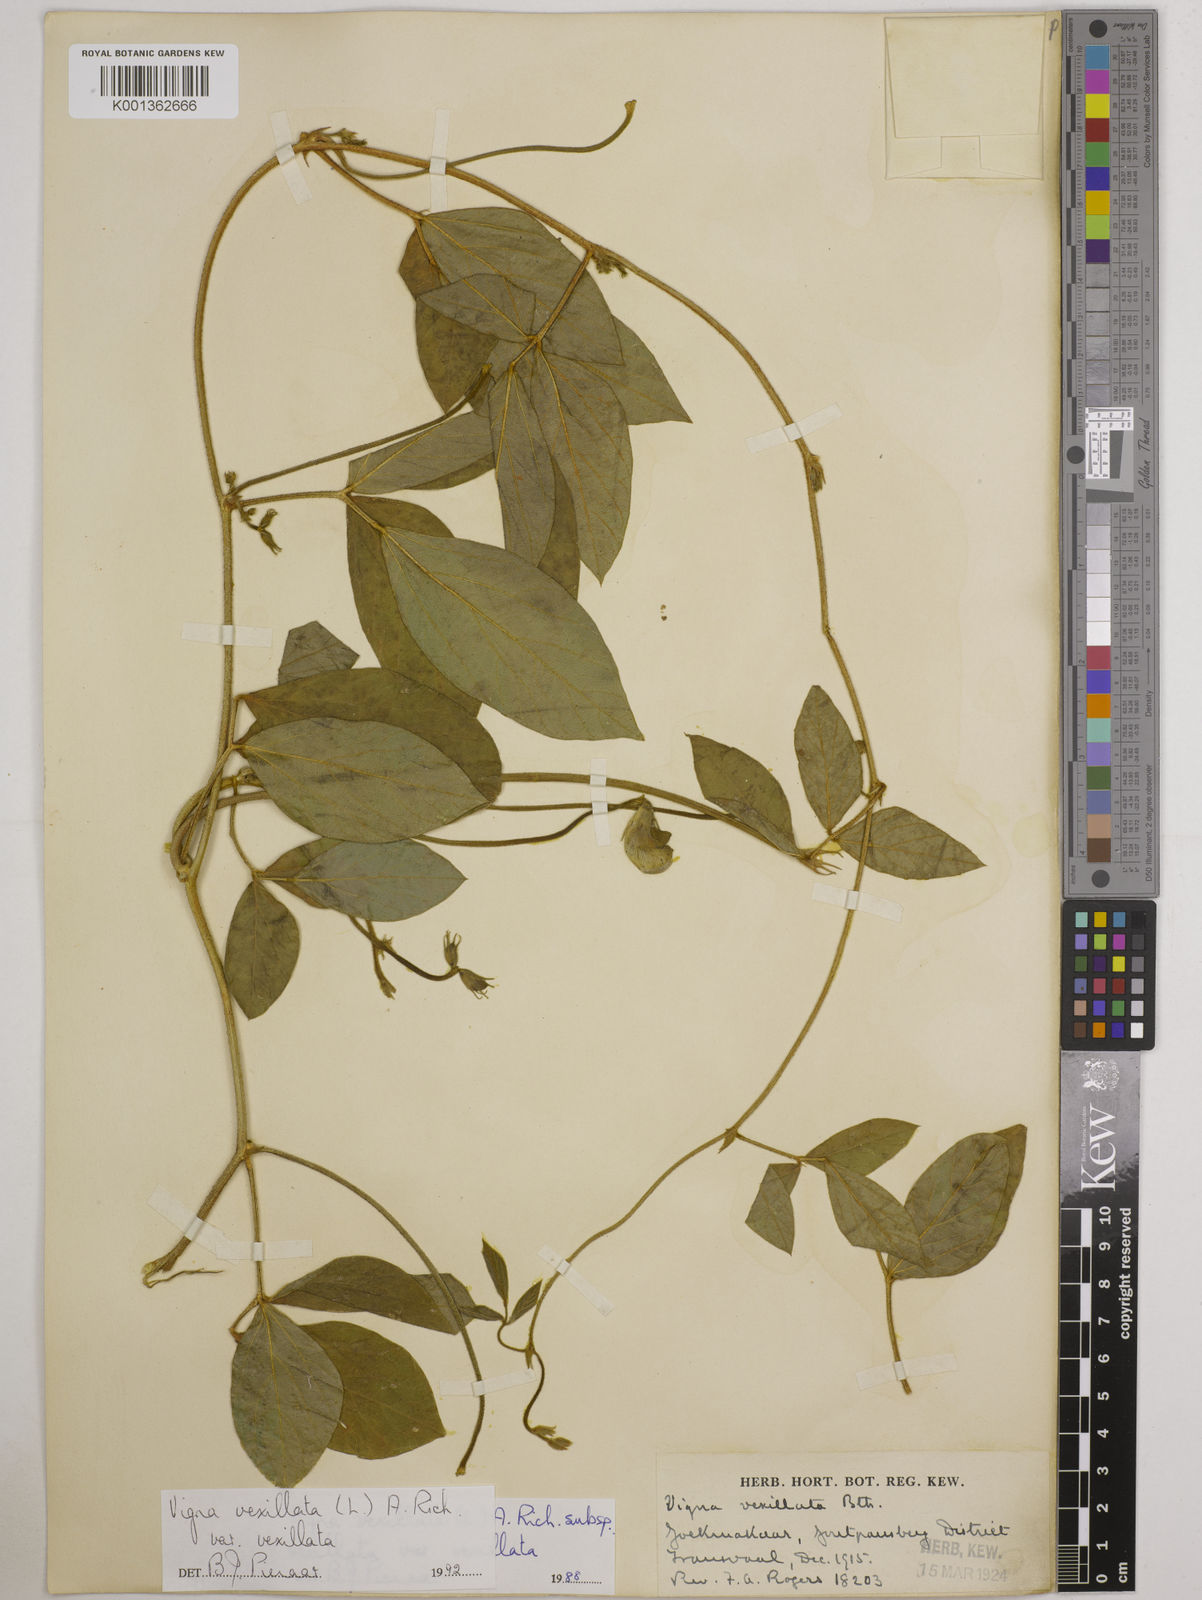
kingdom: Plantae
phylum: Tracheophyta
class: Magnoliopsida
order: Fabales
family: Fabaceae
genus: Vigna
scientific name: Vigna
